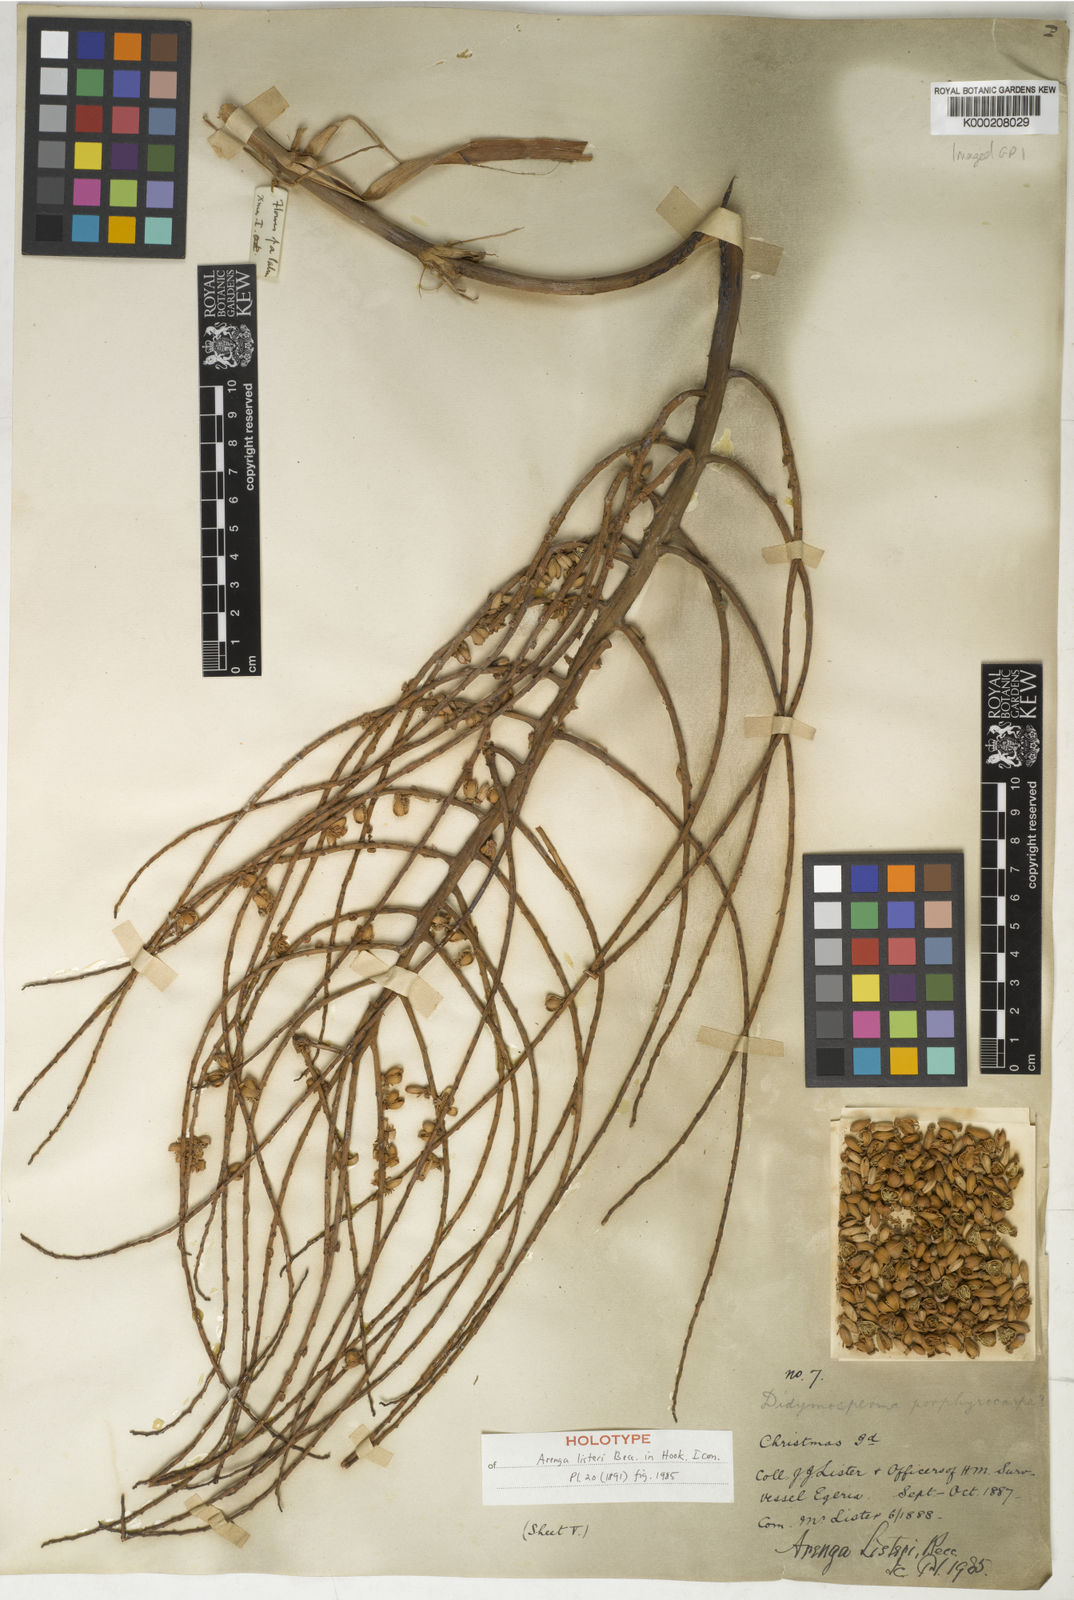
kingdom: Plantae
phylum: Tracheophyta
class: Liliopsida
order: Arecales
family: Arecaceae
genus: Arenga
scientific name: Arenga listeri
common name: Lister's palm
